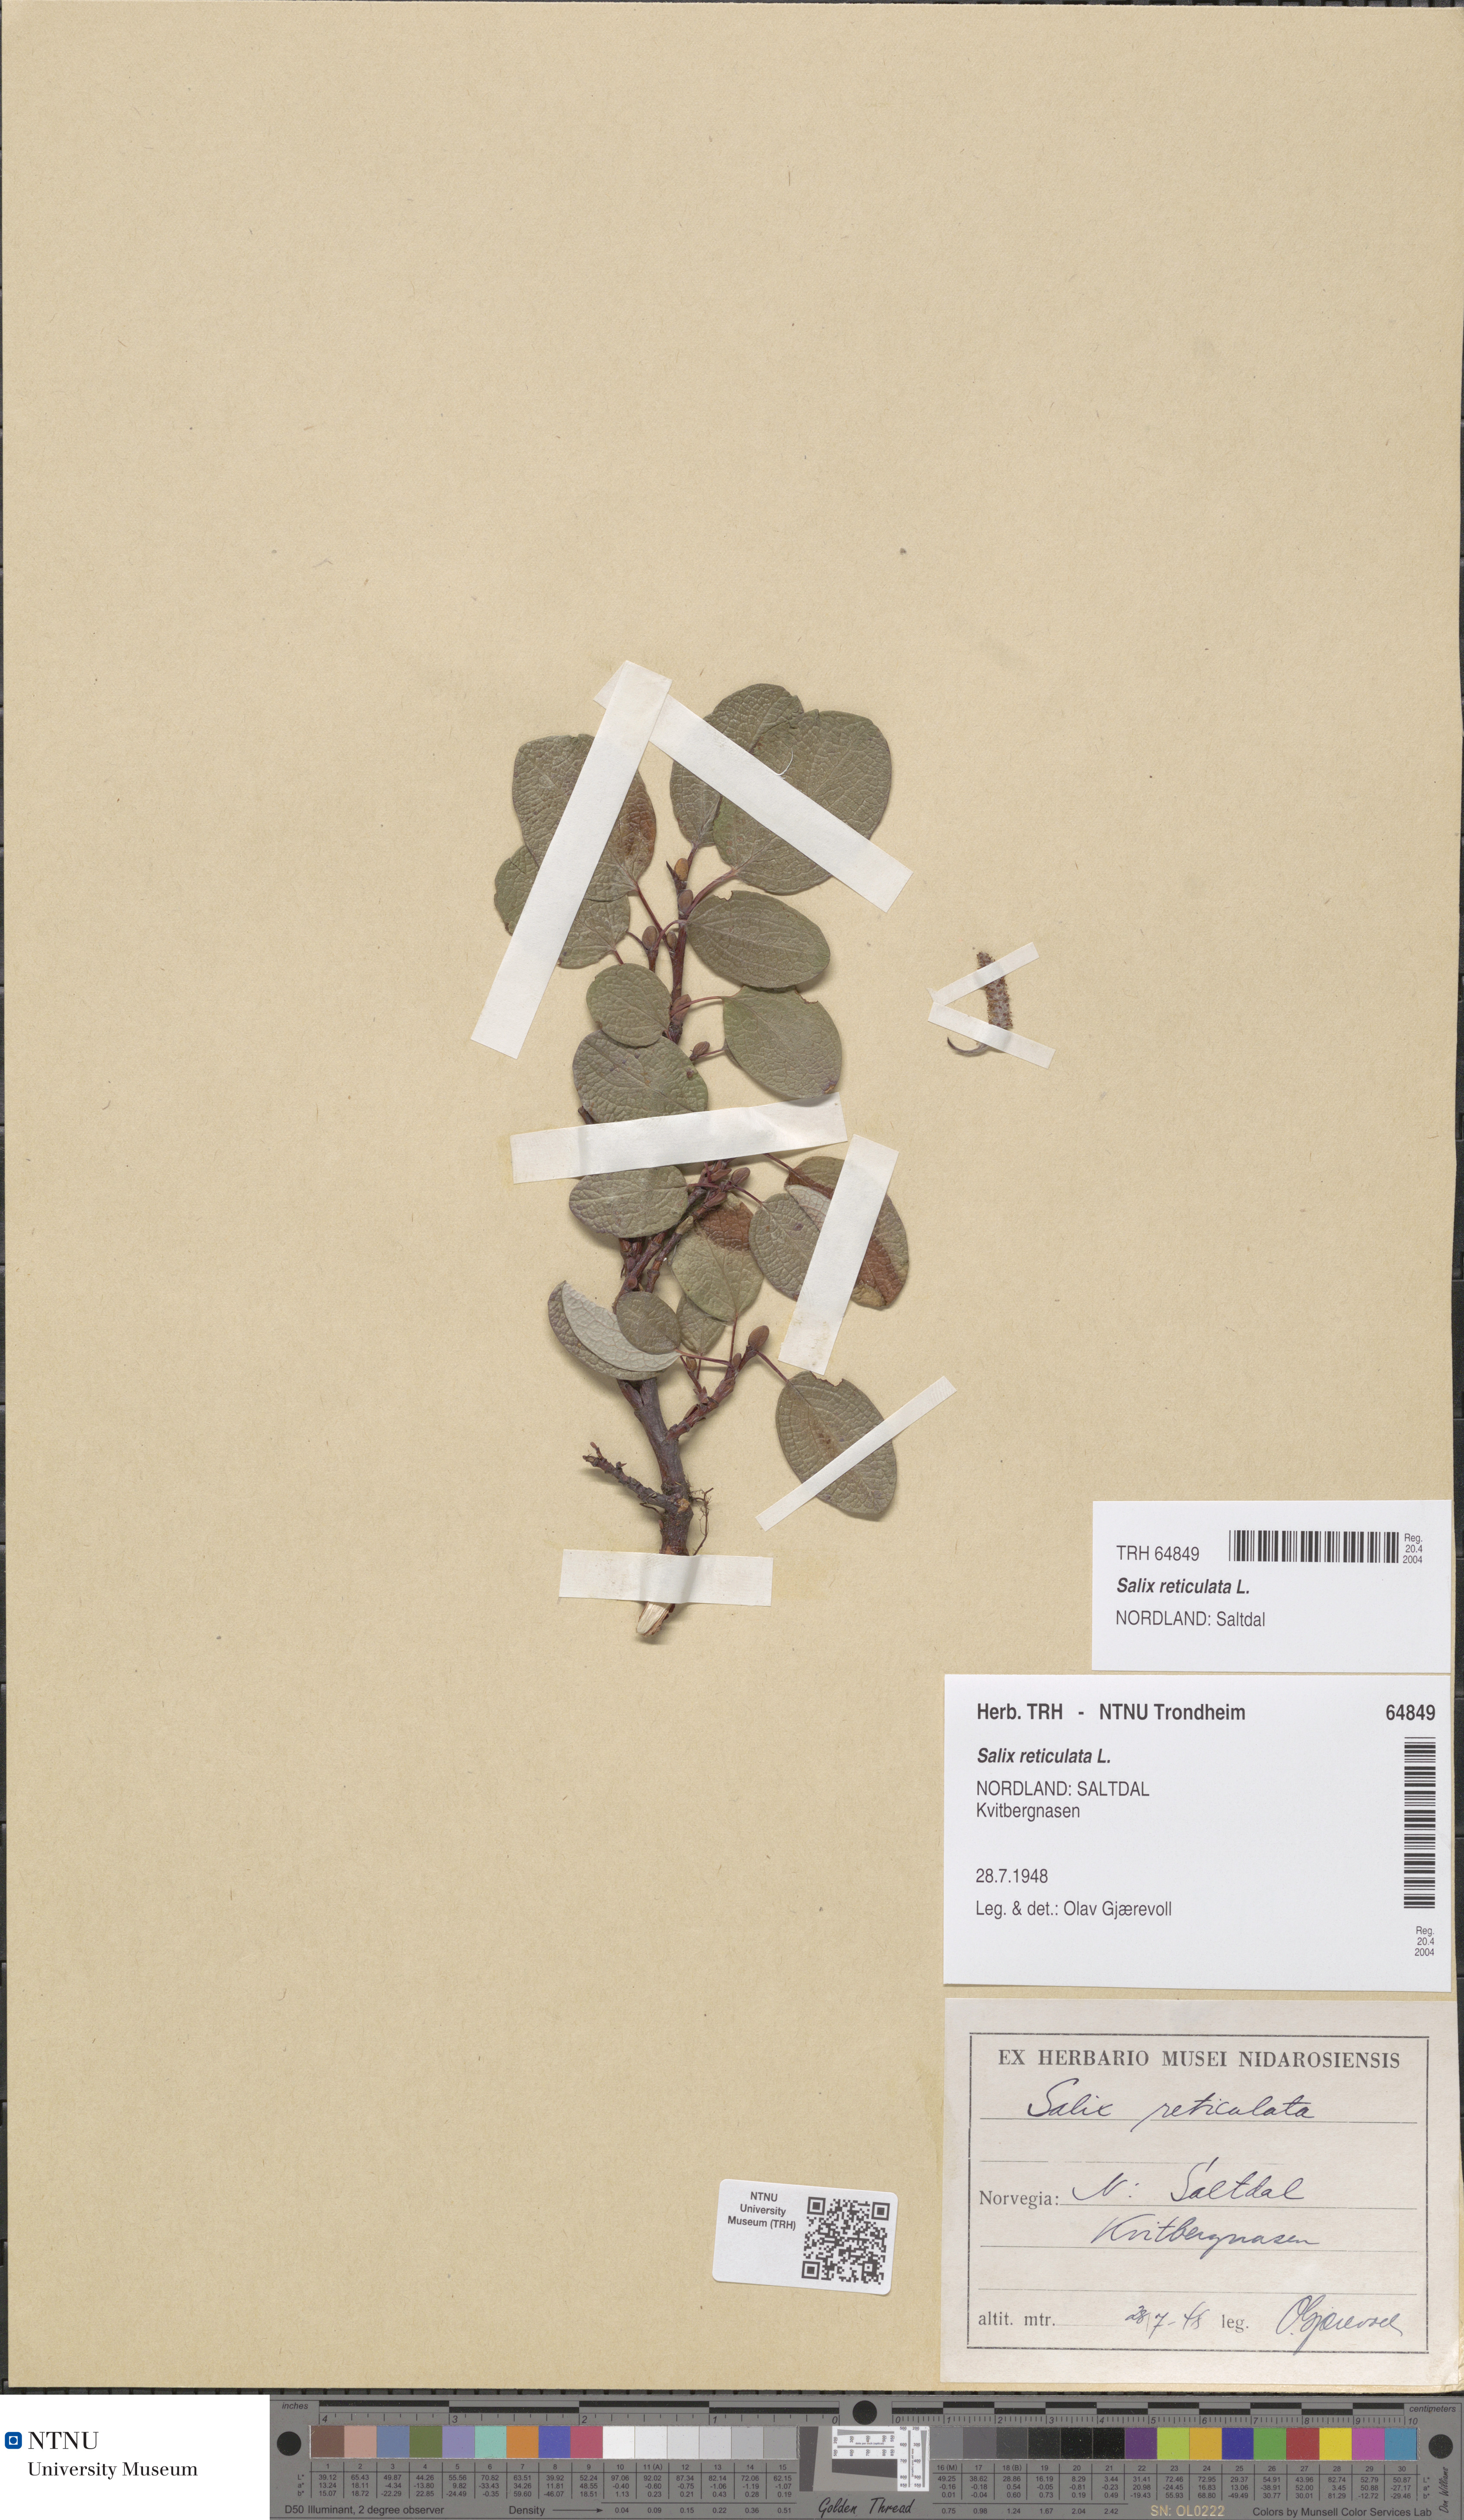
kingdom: Plantae
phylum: Tracheophyta
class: Magnoliopsida
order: Malpighiales
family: Salicaceae
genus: Salix
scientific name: Salix reticulata
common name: Net-leaved willow
